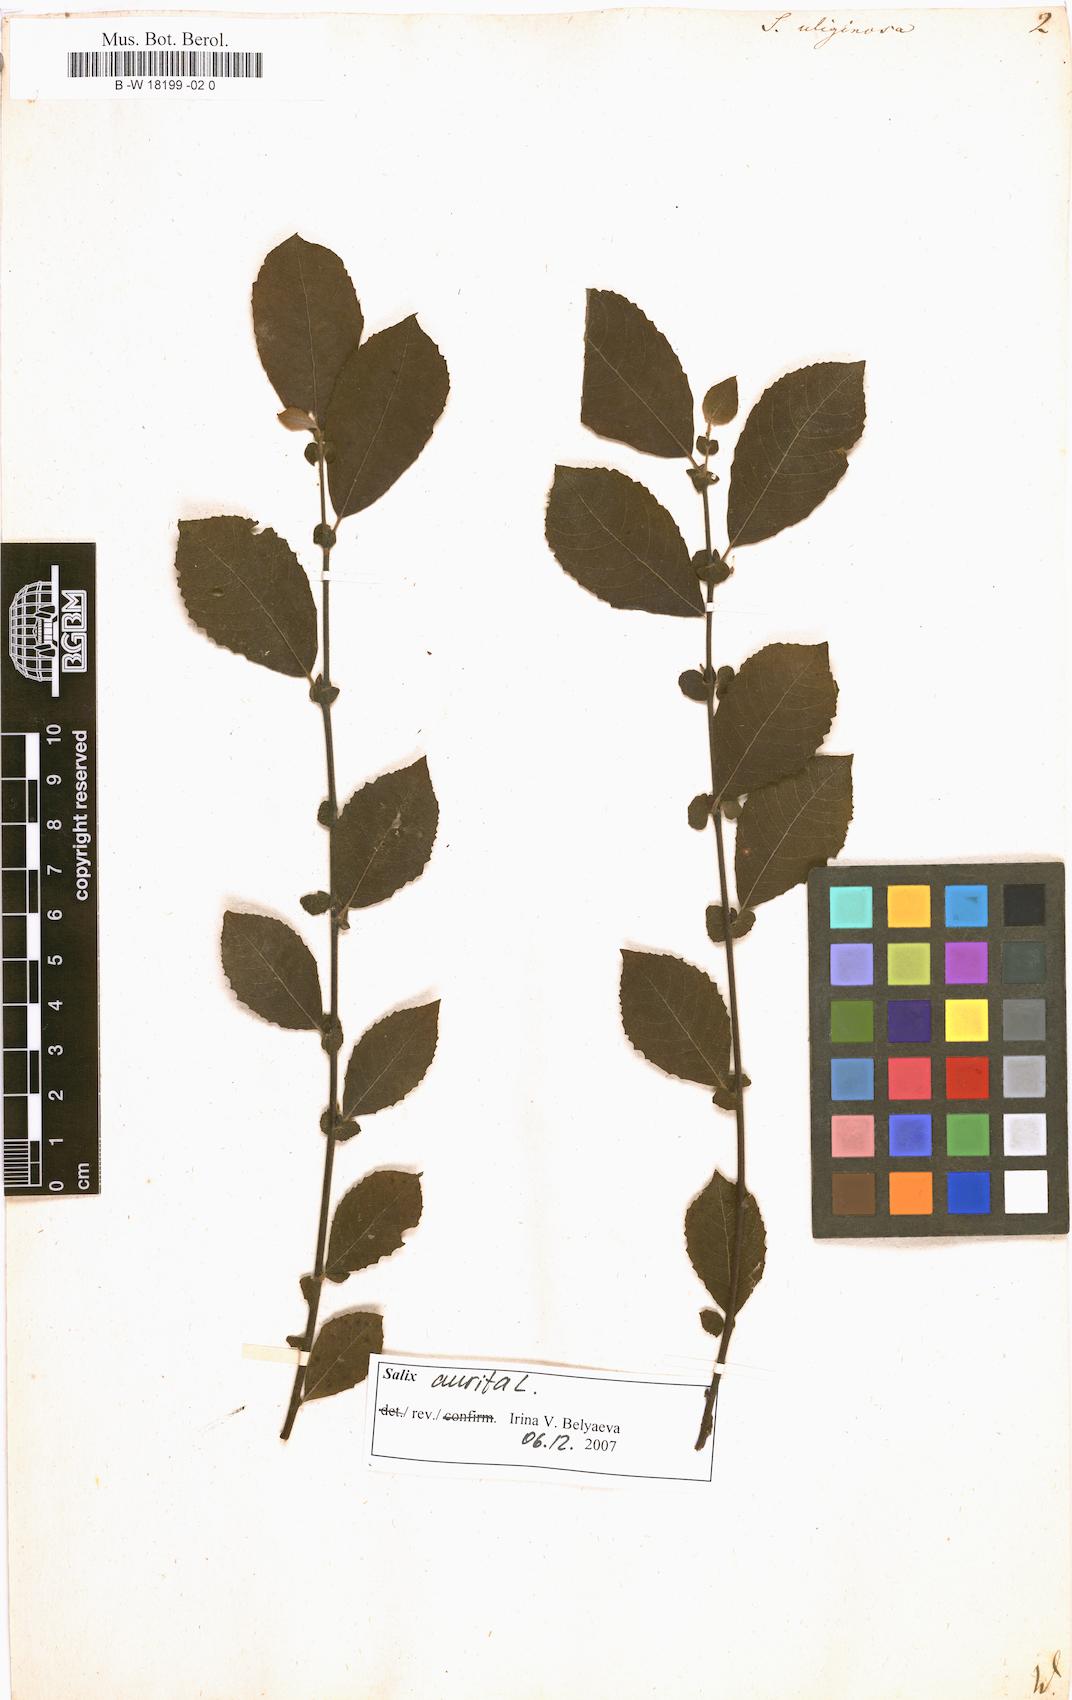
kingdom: Plantae
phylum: Tracheophyta
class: Magnoliopsida
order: Malpighiales
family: Salicaceae
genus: Salix
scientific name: Salix
